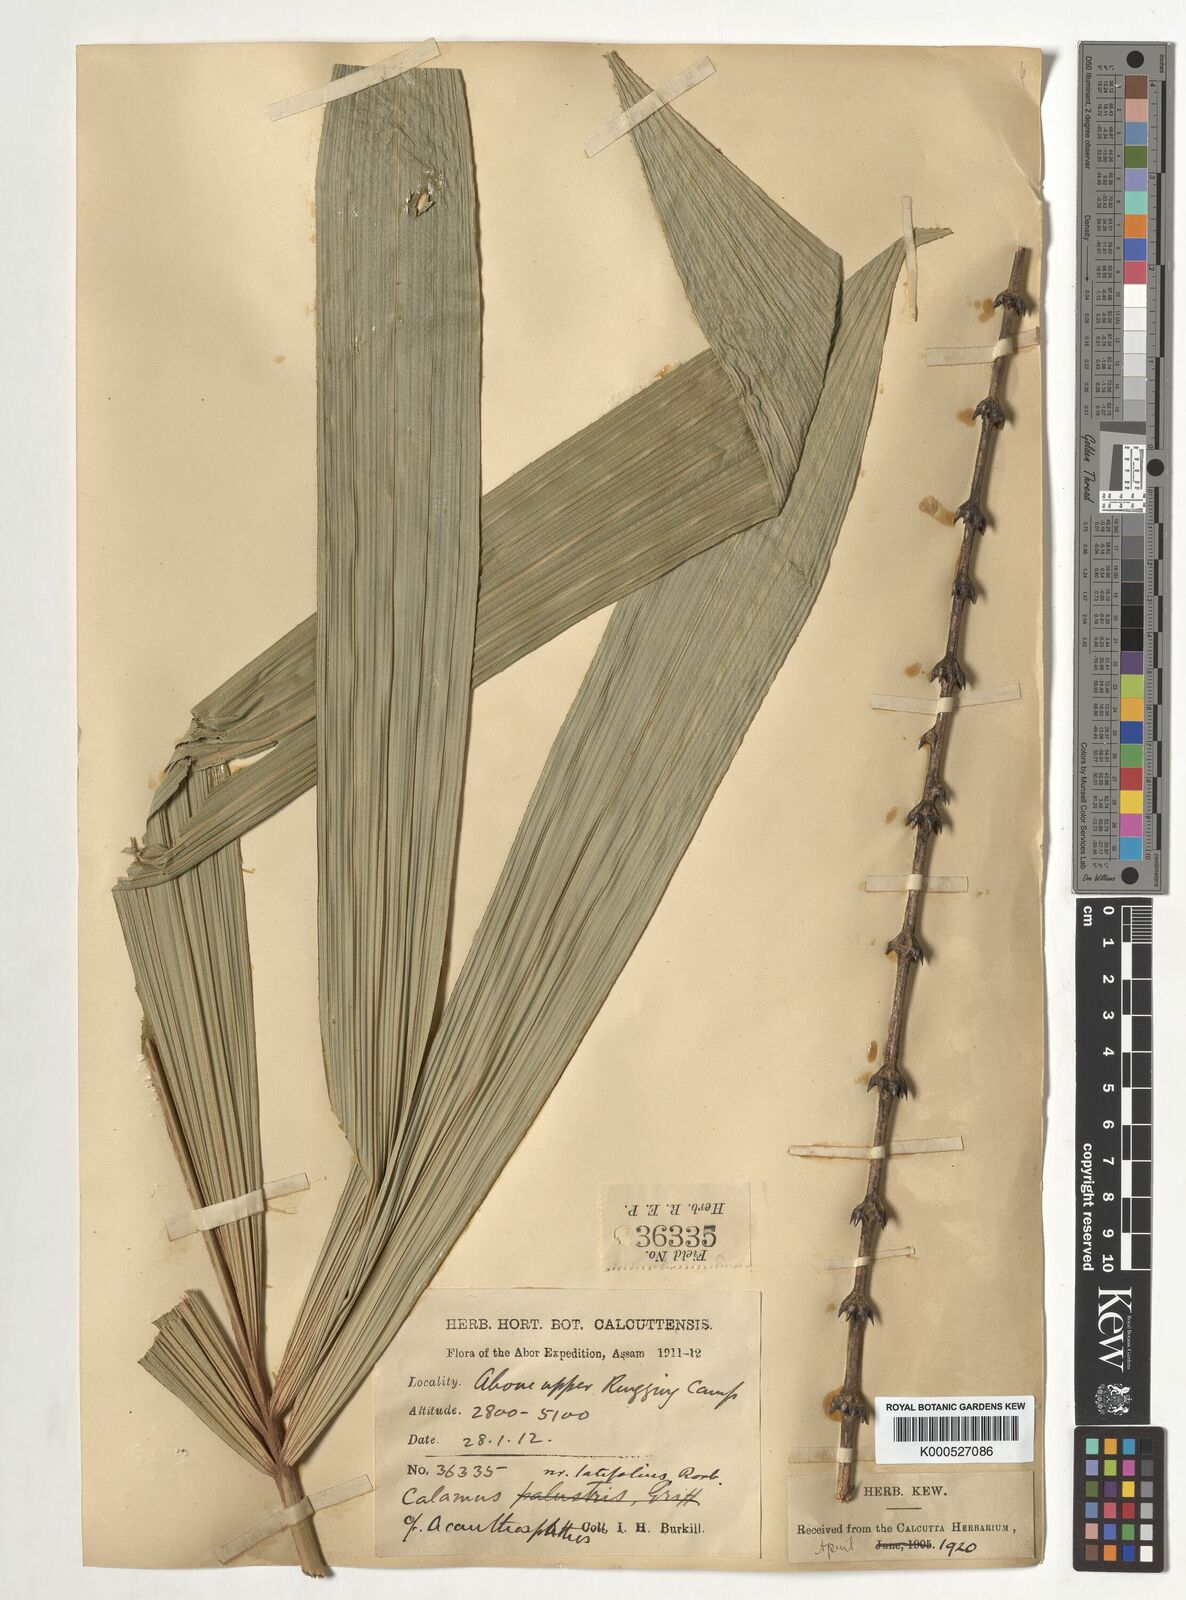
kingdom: Plantae
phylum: Tracheophyta
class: Liliopsida
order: Arecales
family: Arecaceae
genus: Calamus
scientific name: Calamus latifolius
